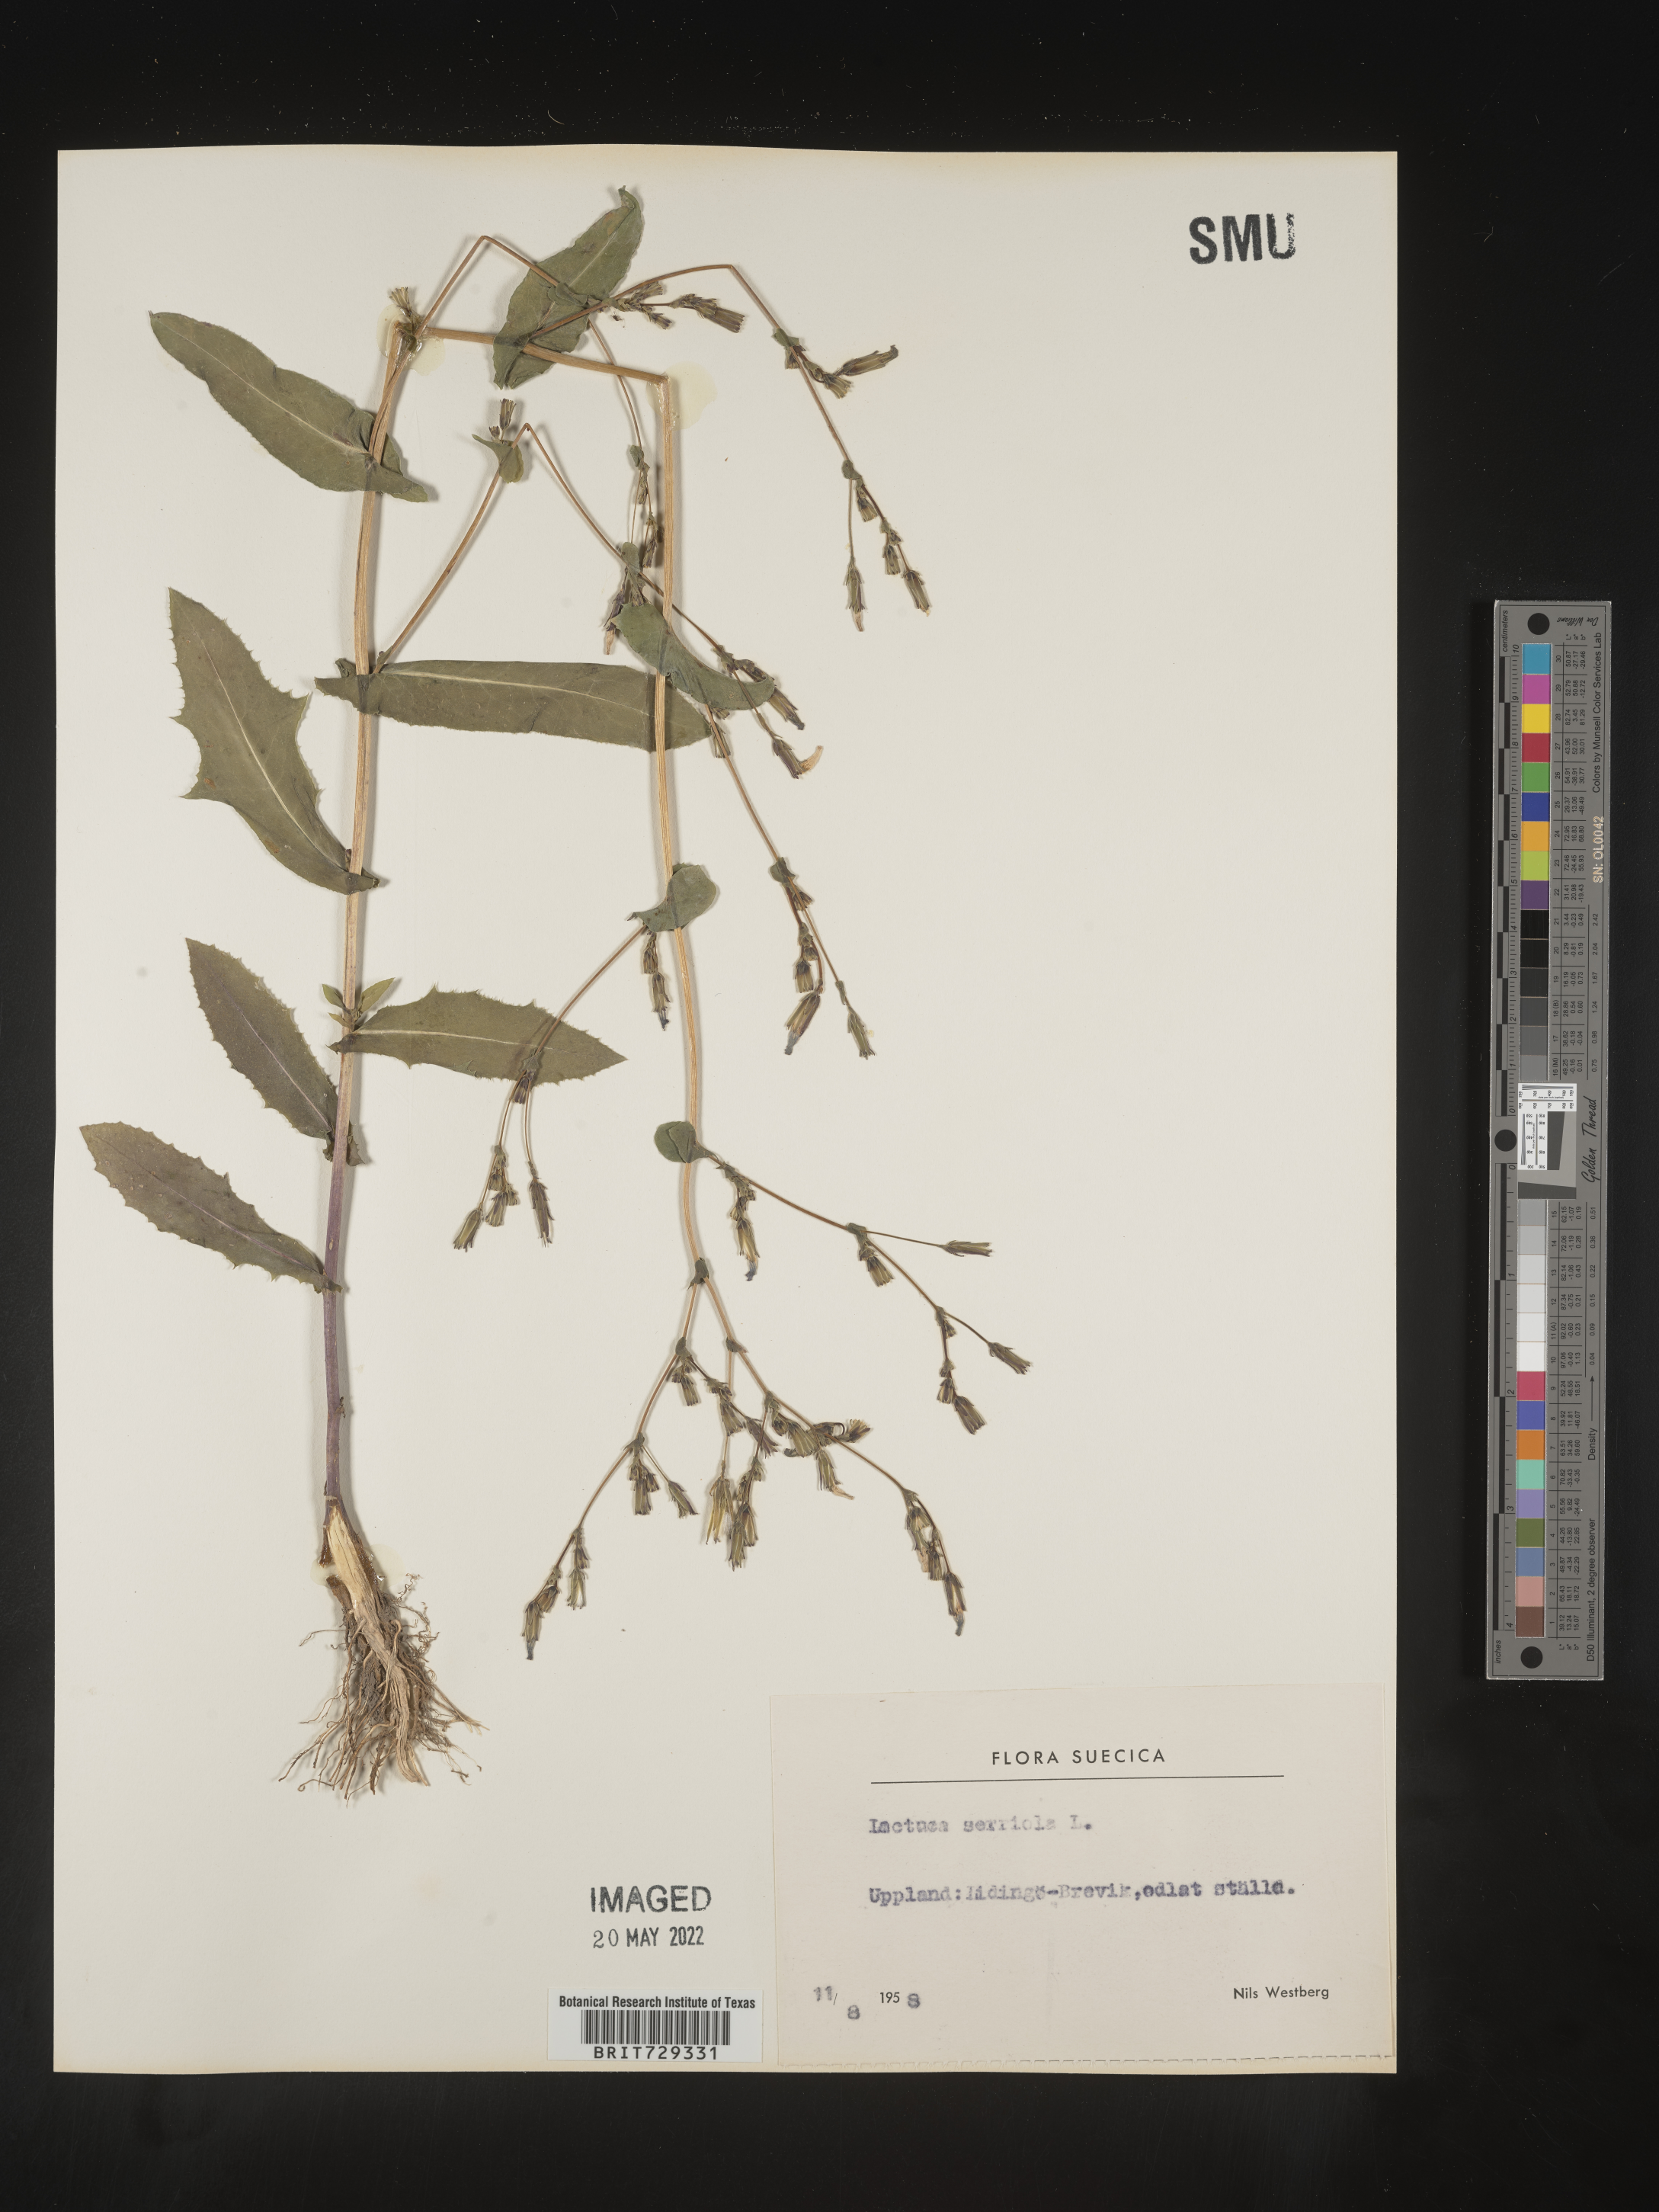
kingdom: Plantae
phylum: Tracheophyta
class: Magnoliopsida
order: Asterales
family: Asteraceae
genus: Lactuca
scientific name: Lactuca
